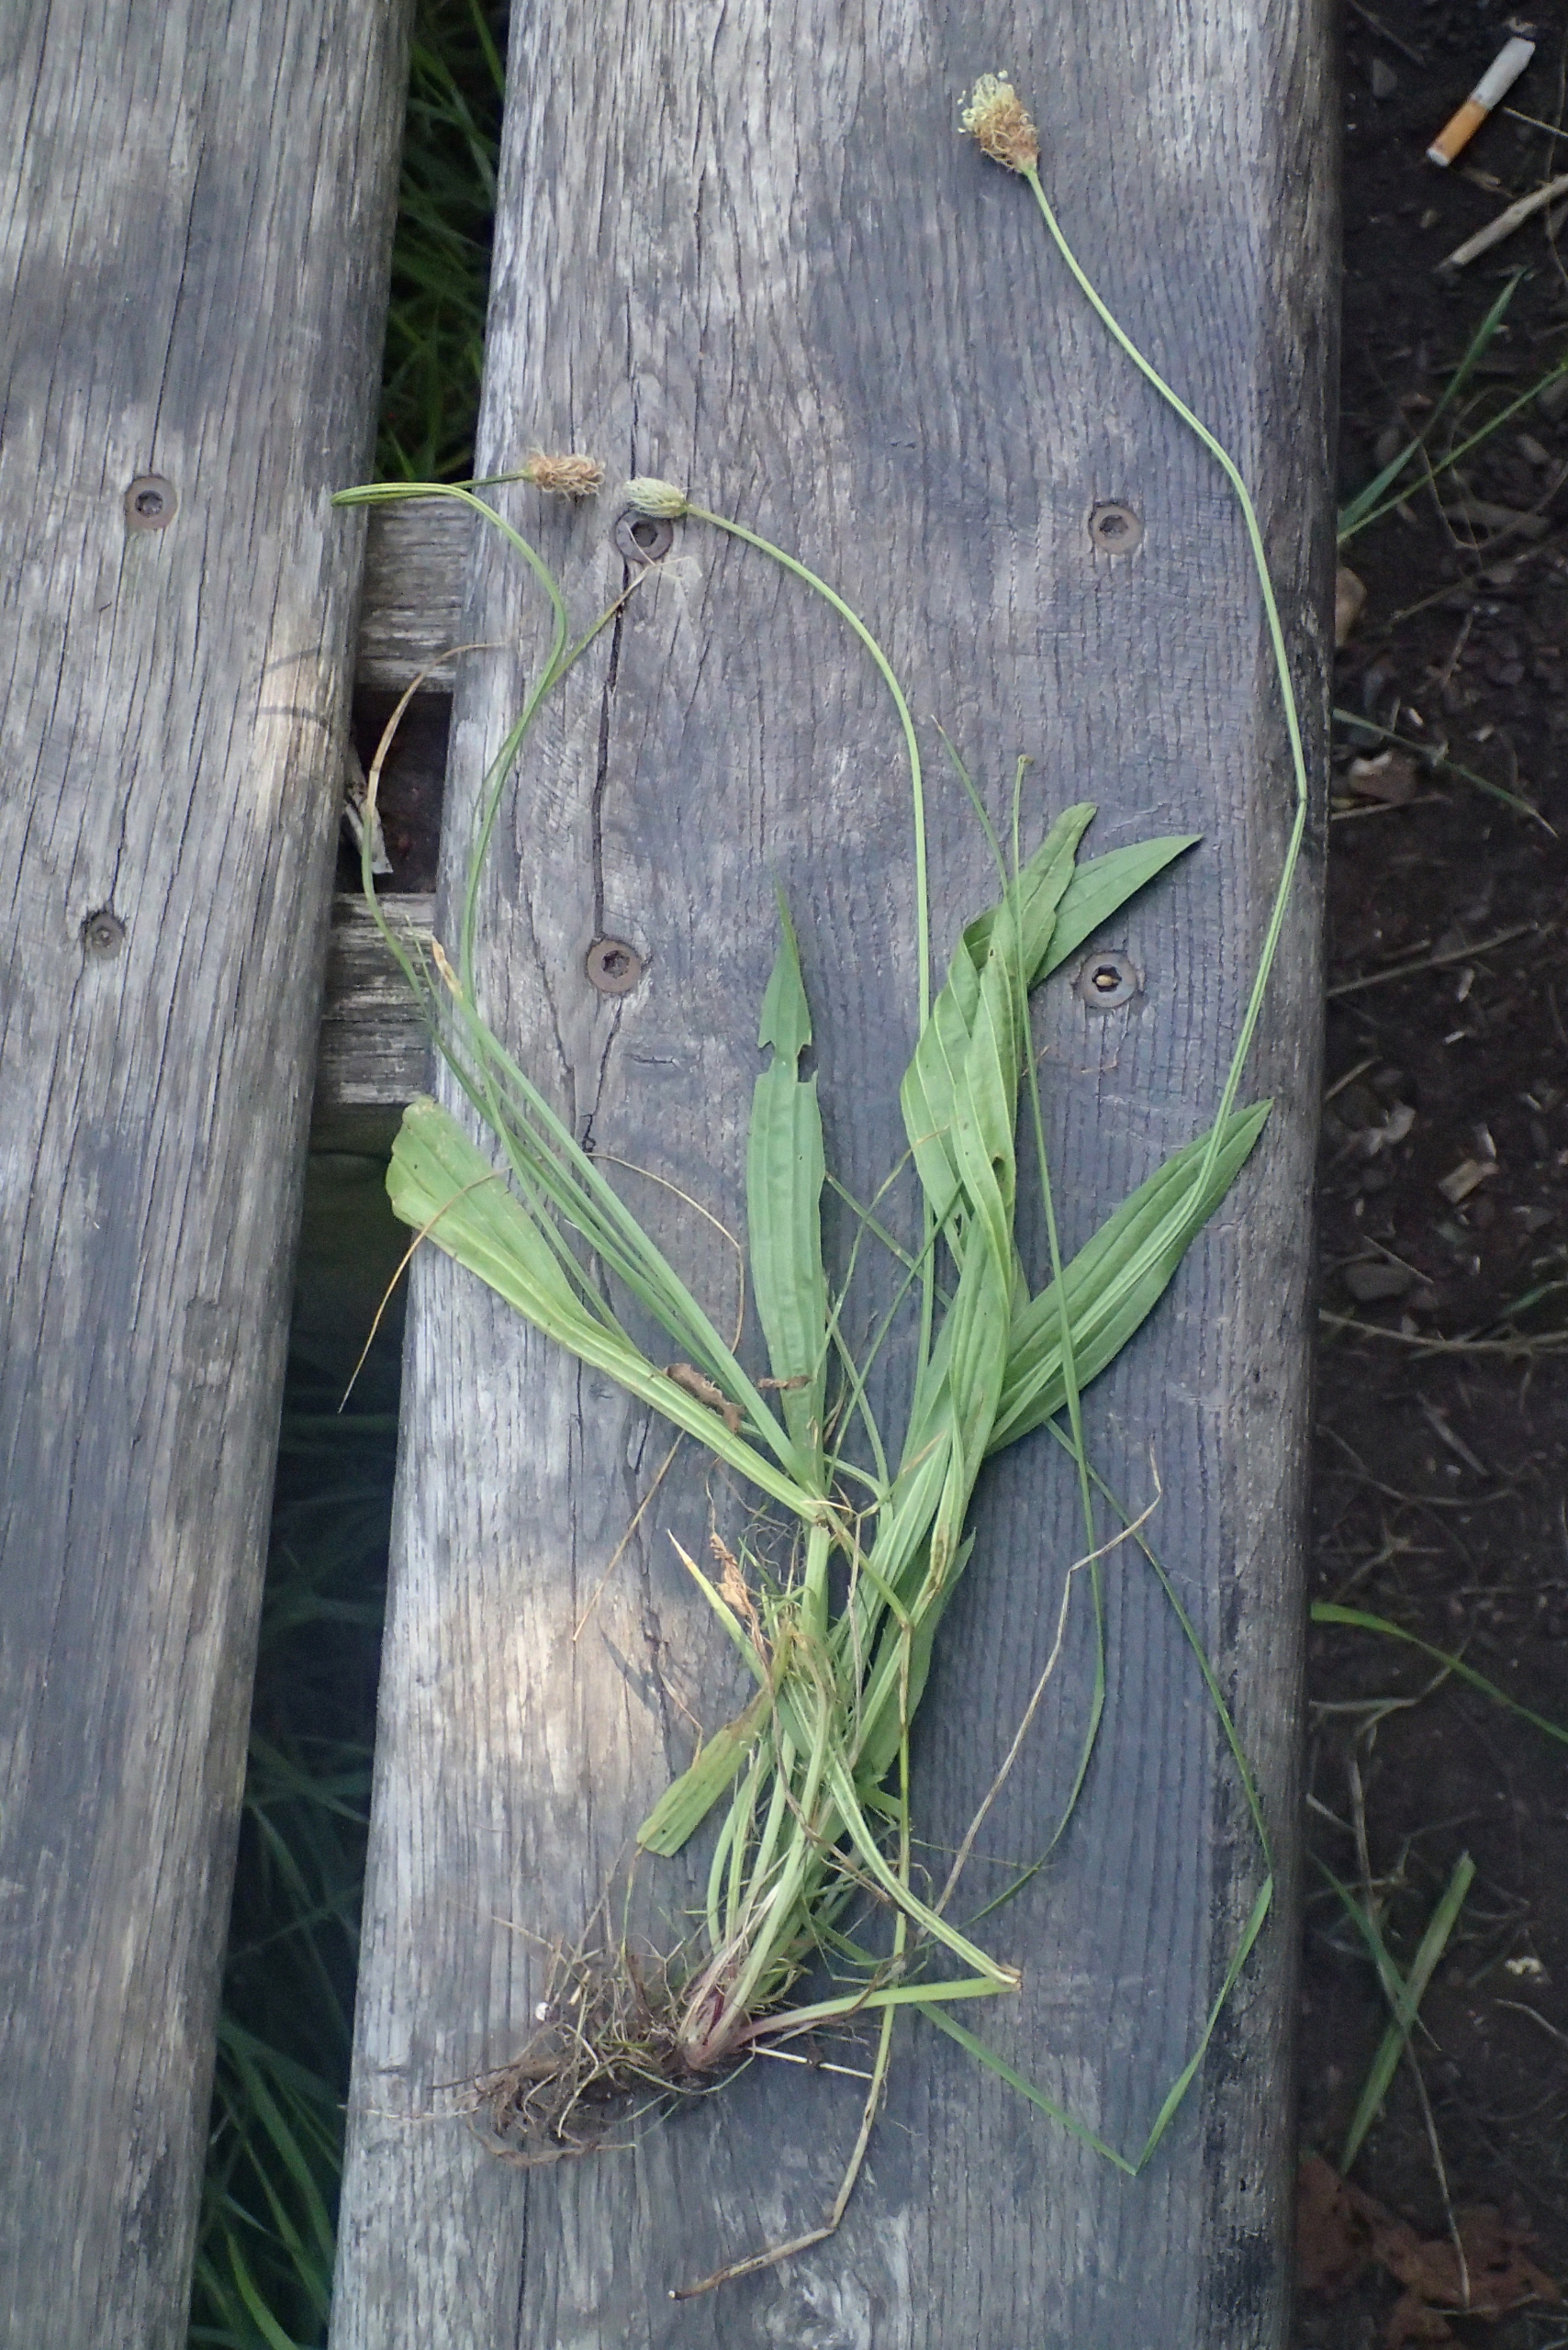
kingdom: Plantae
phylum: Tracheophyta
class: Magnoliopsida
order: Lamiales
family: Plantaginaceae
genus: Plantago
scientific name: Plantago lanceolata
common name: Lancet-vejbred
